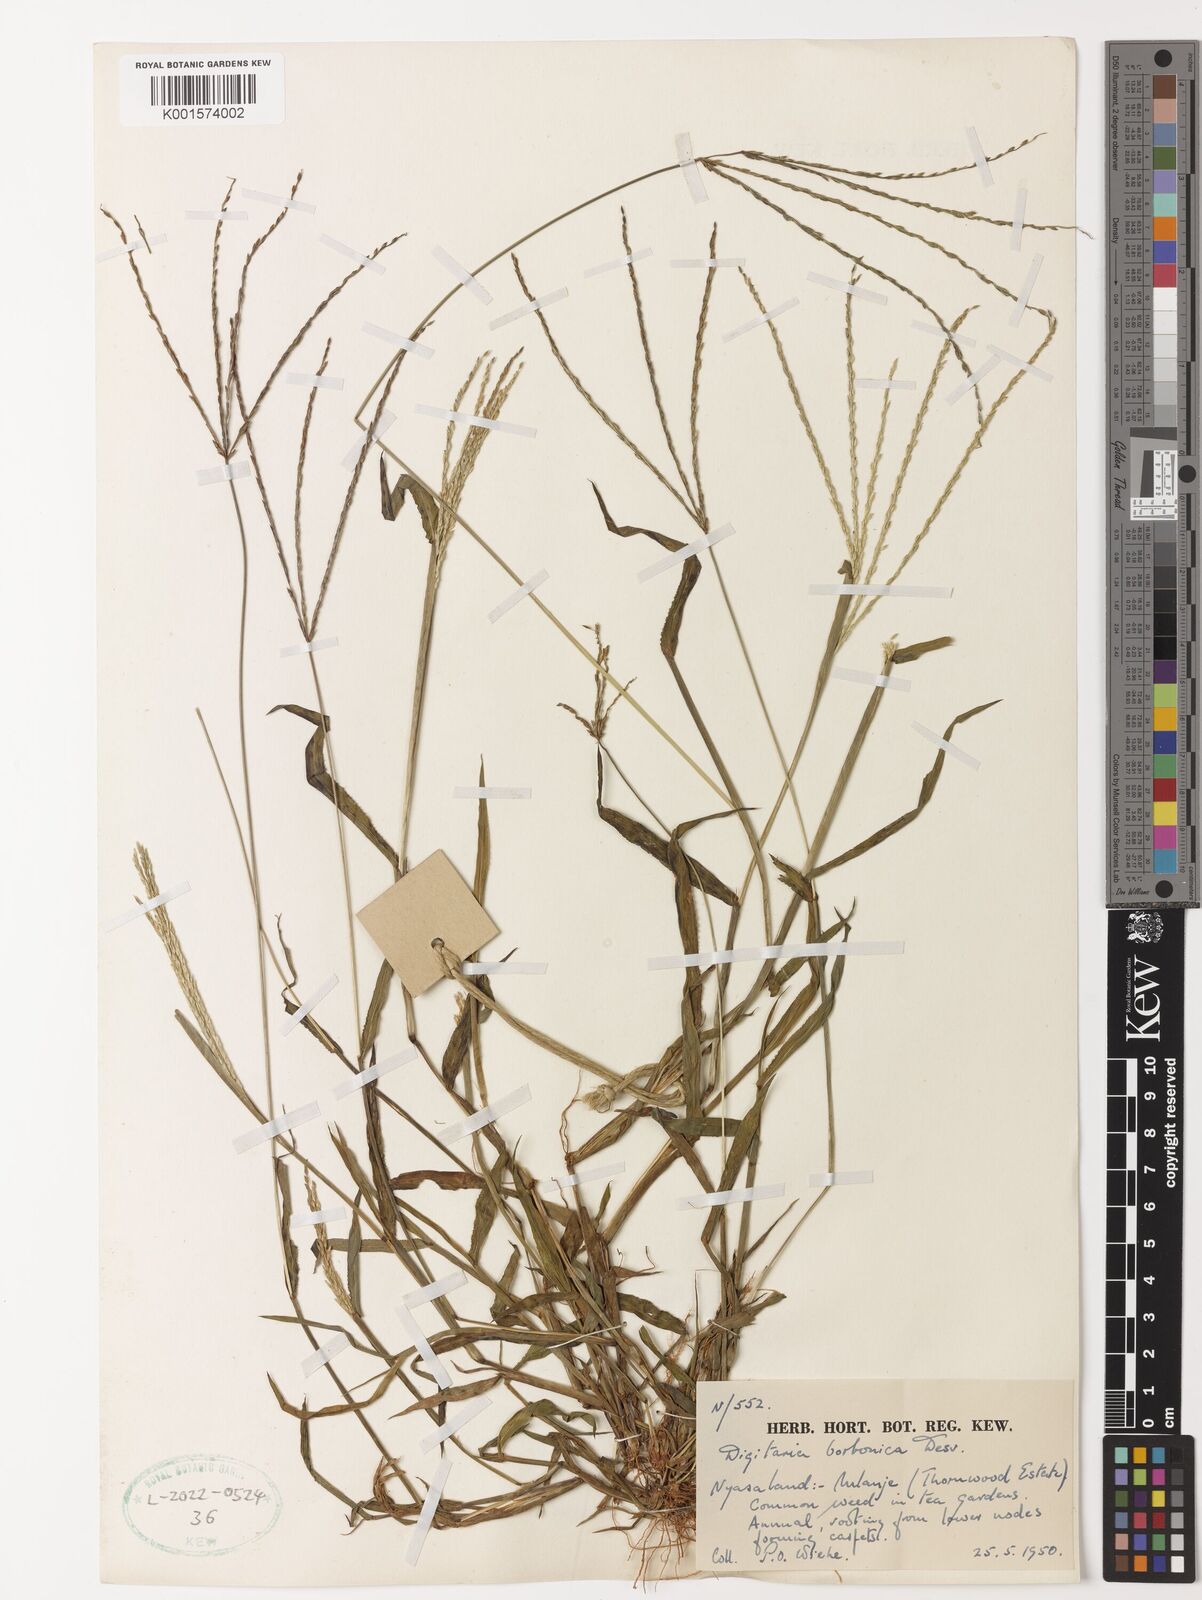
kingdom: Plantae
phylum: Tracheophyta
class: Liliopsida
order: Poales
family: Poaceae
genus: Digitaria
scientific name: Digitaria sanguinalis
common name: Hairy crabgrass
